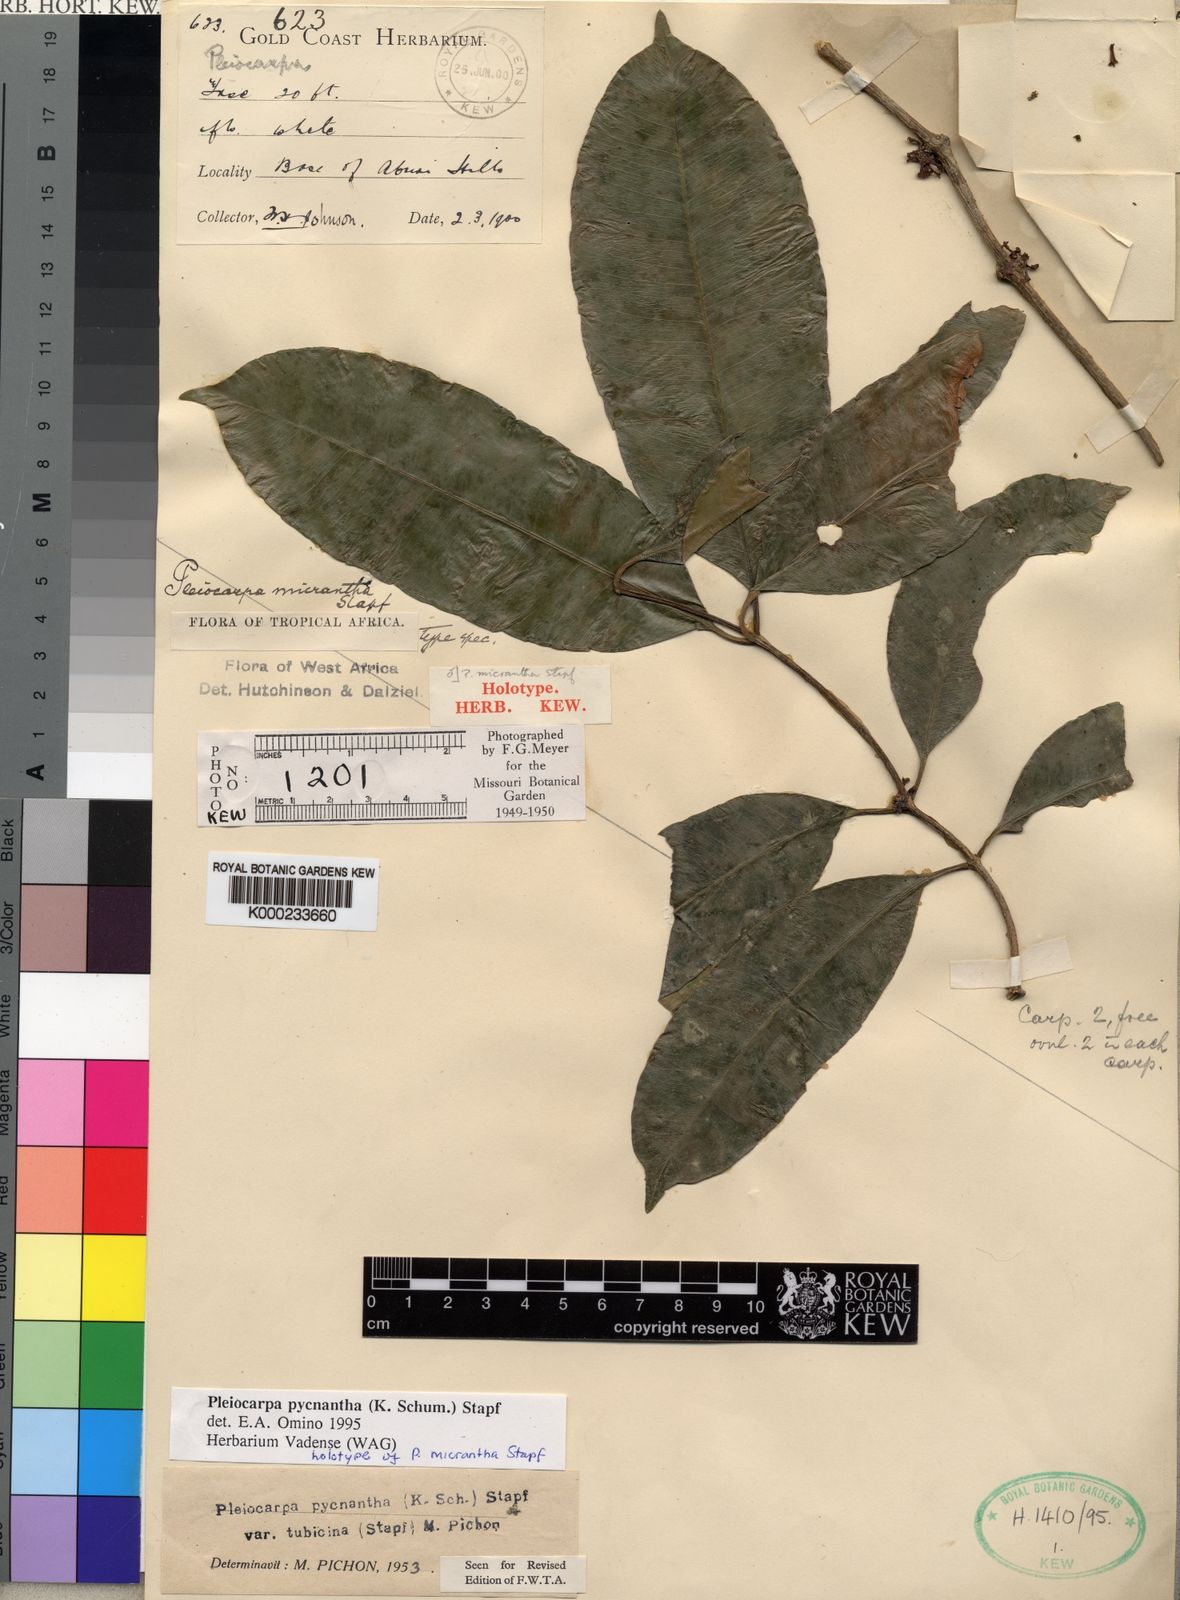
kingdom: Plantae
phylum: Tracheophyta
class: Magnoliopsida
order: Gentianales
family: Apocynaceae
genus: Pleiocarpa
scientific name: Pleiocarpa pycnantha
